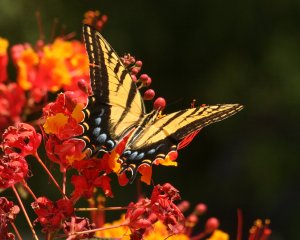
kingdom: Animalia
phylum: Arthropoda
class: Insecta
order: Lepidoptera
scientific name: Lepidoptera
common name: Butterflies
